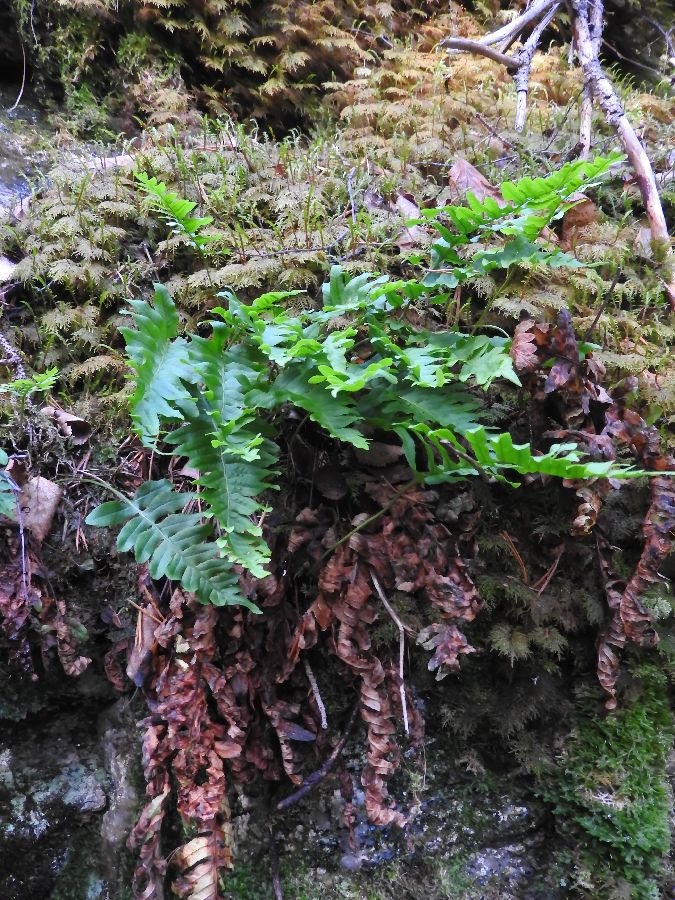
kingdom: Plantae
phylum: Tracheophyta
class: Polypodiopsida
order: Polypodiales
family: Polypodiaceae
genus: Polypodium
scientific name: Polypodium vulgare
